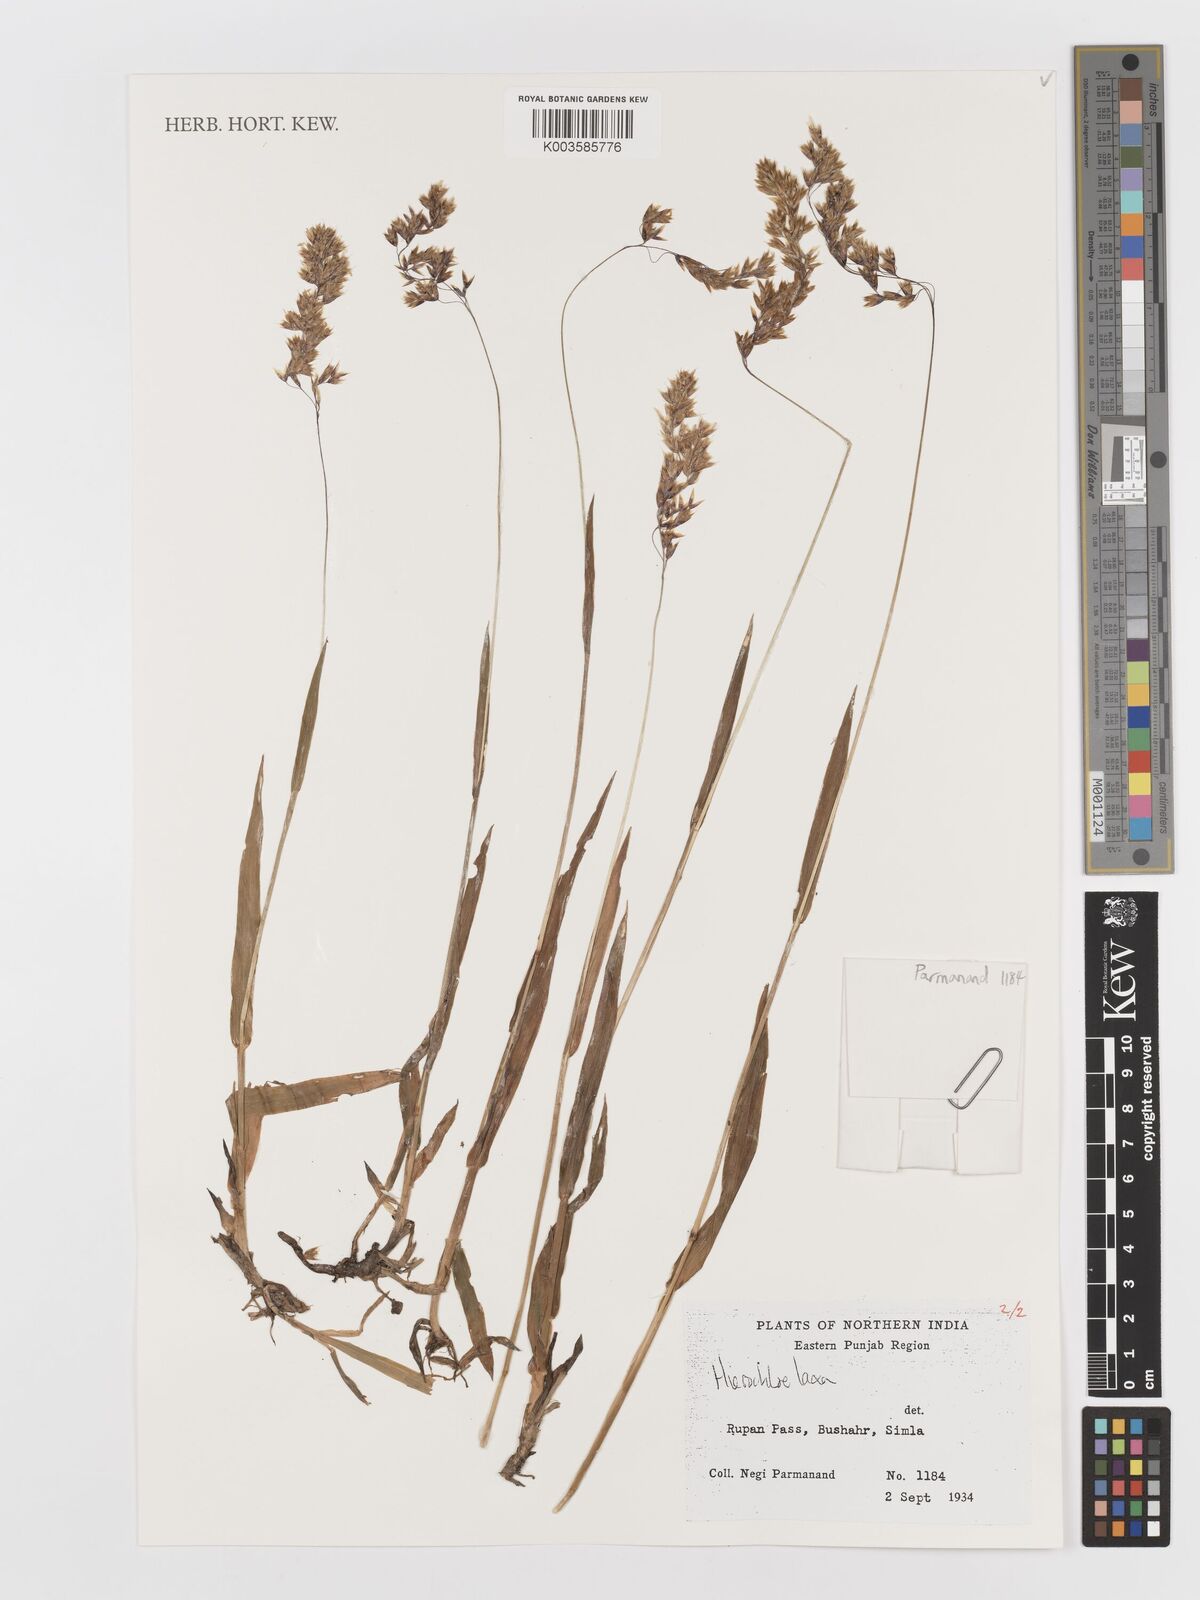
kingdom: Plantae
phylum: Tracheophyta
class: Liliopsida
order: Poales
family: Poaceae
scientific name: Poaceae
